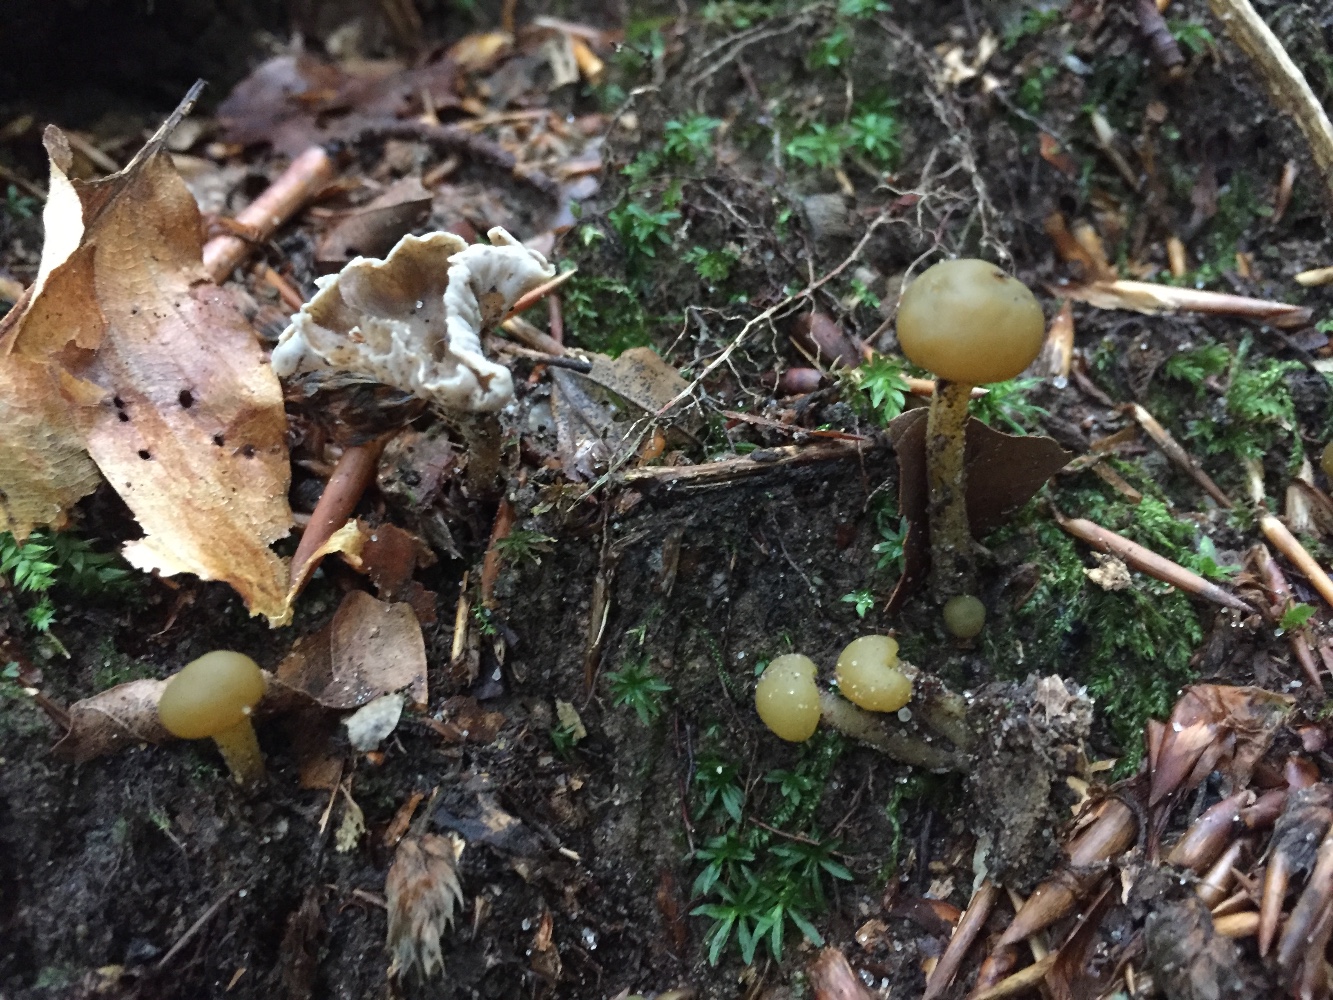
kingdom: Fungi
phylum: Ascomycota
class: Leotiomycetes
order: Leotiales
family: Leotiaceae
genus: Leotia
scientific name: Leotia lubrica
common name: ravsvamp
